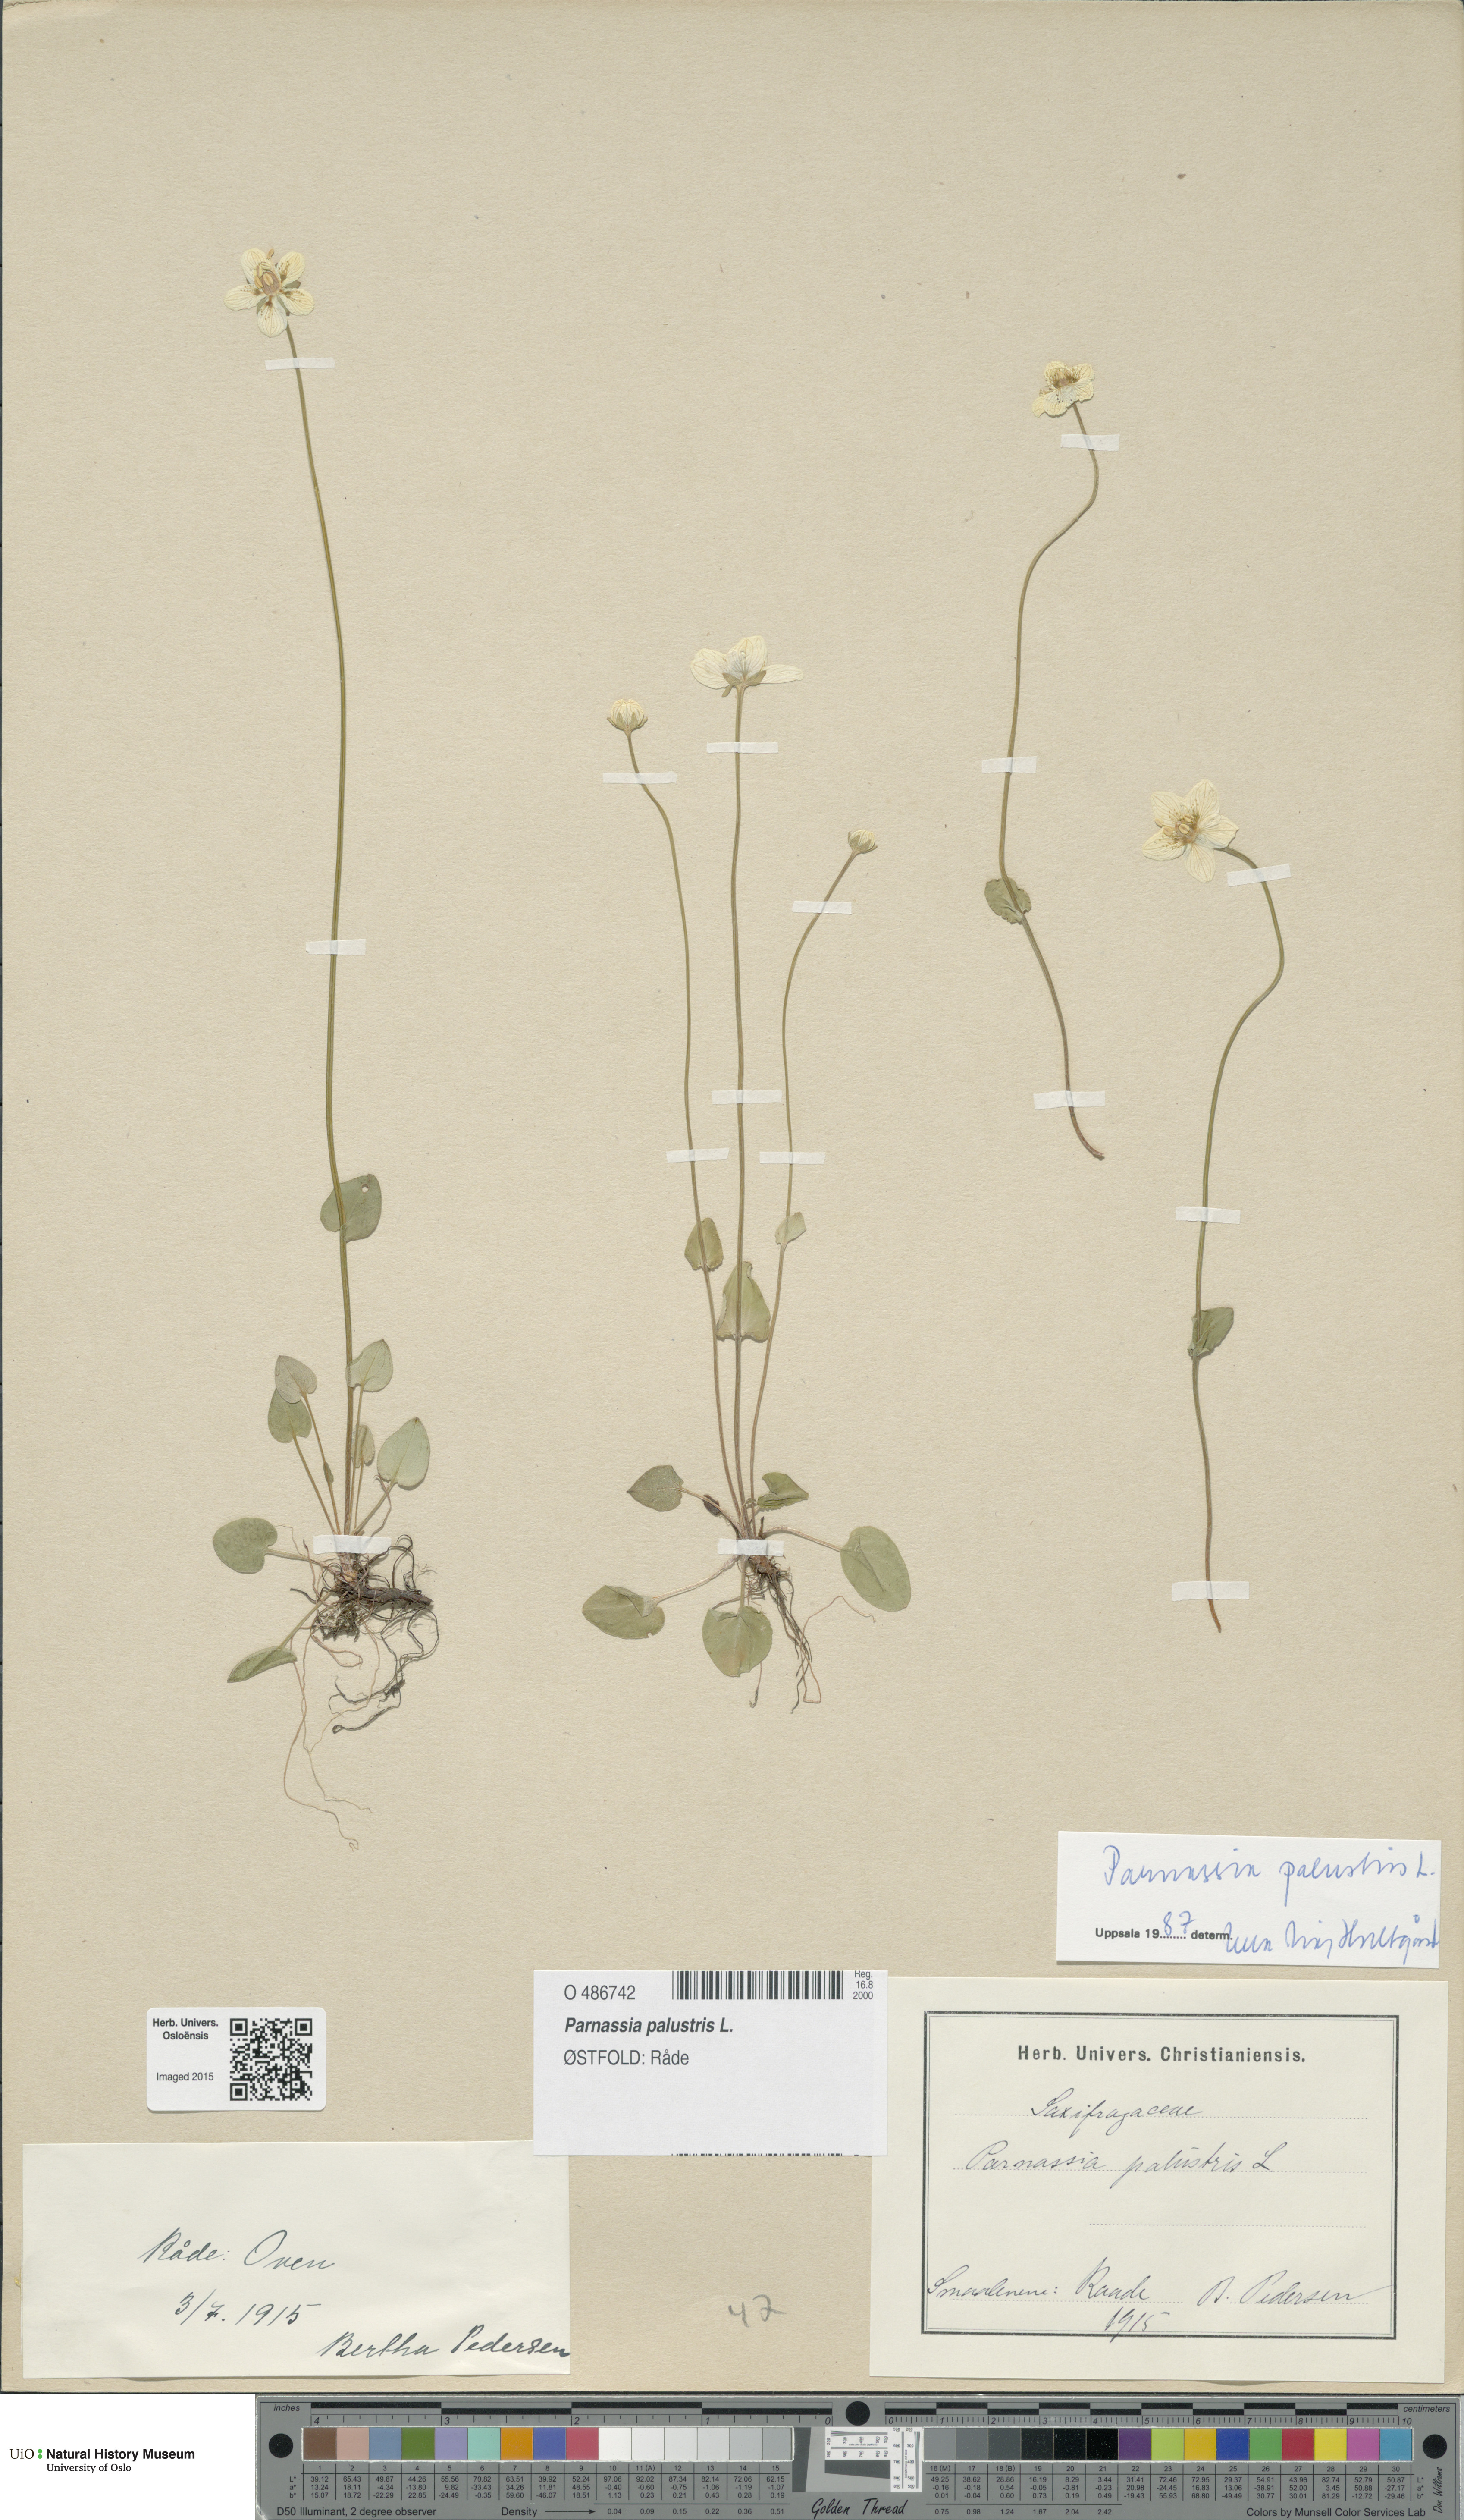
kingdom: Plantae
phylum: Tracheophyta
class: Magnoliopsida
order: Celastrales
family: Parnassiaceae
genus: Parnassia
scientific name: Parnassia palustris
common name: Grass-of-parnassus
